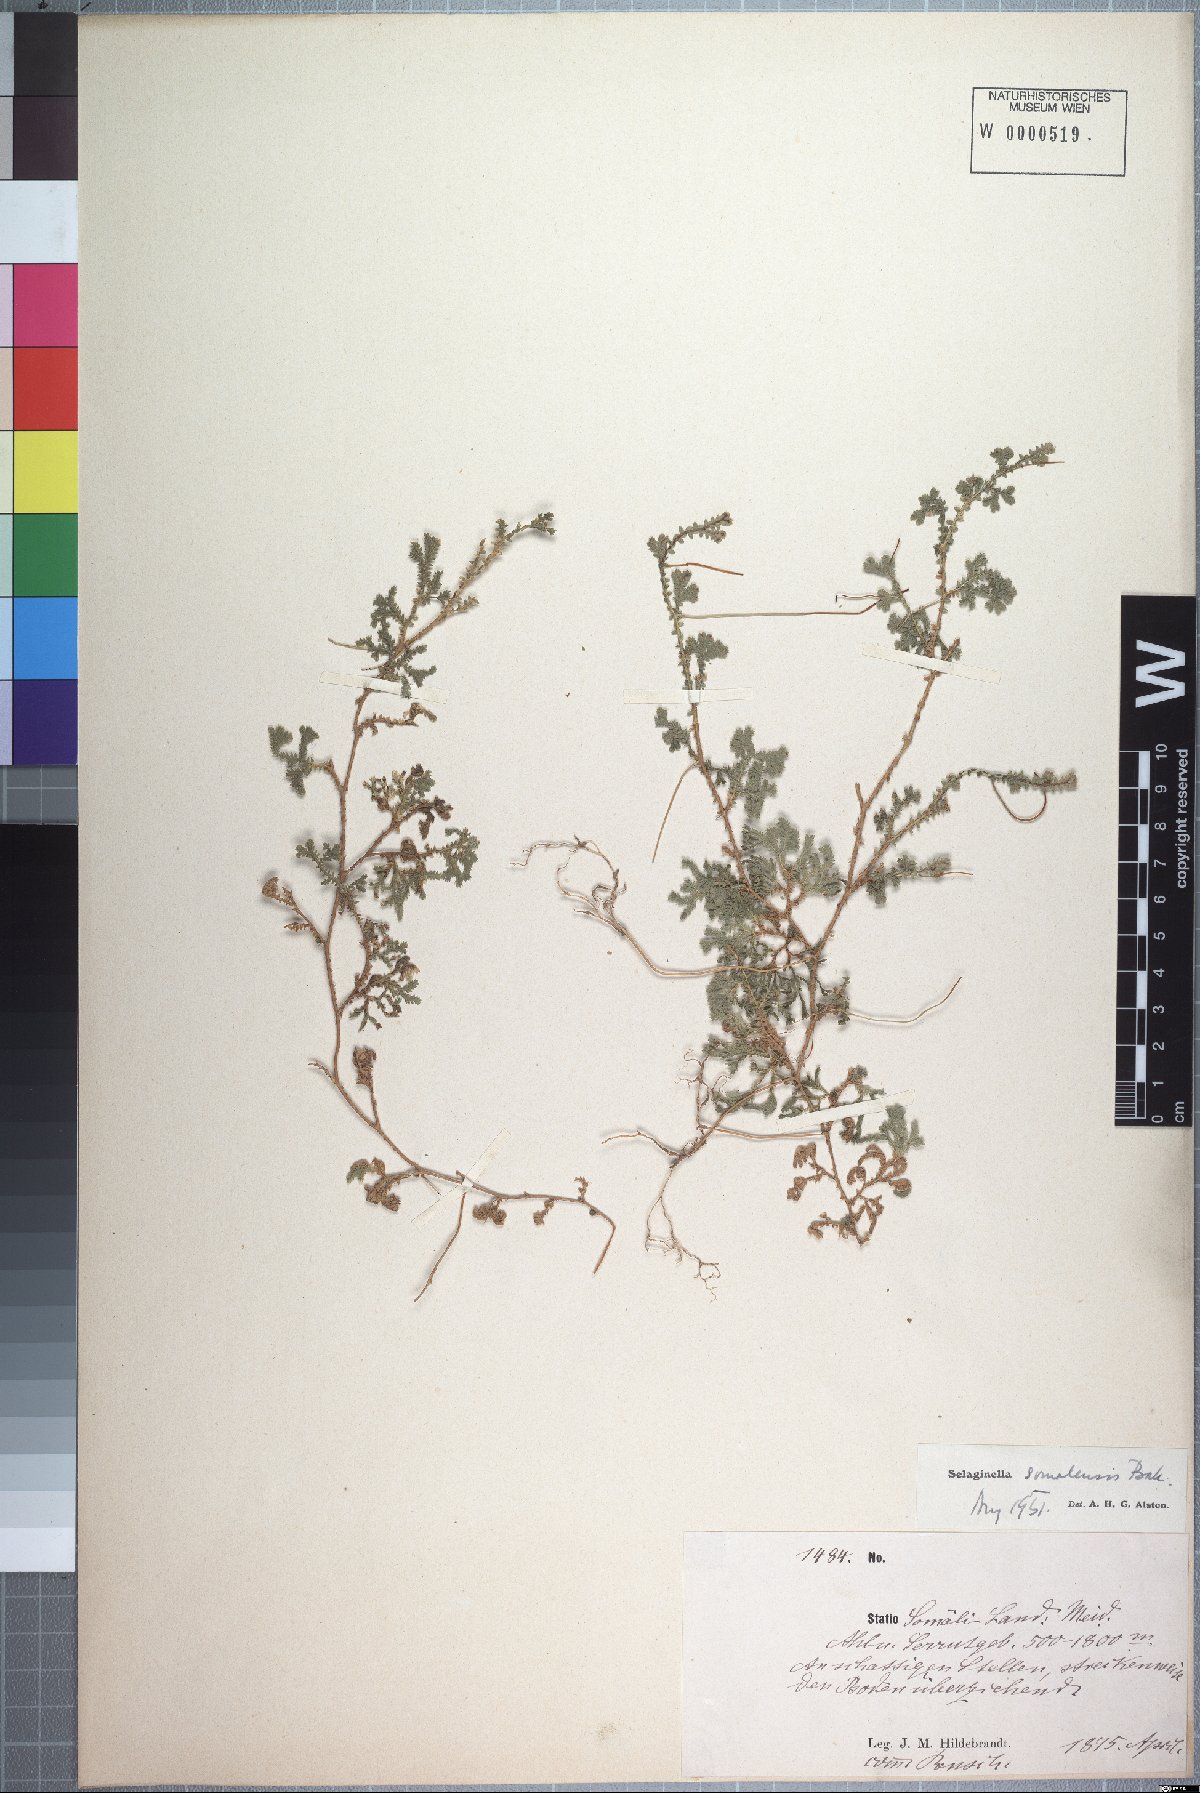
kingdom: Plantae
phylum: Tracheophyta
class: Lycopodiopsida
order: Selaginellales
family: Selaginellaceae
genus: Selaginella
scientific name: Selaginella yemensis
